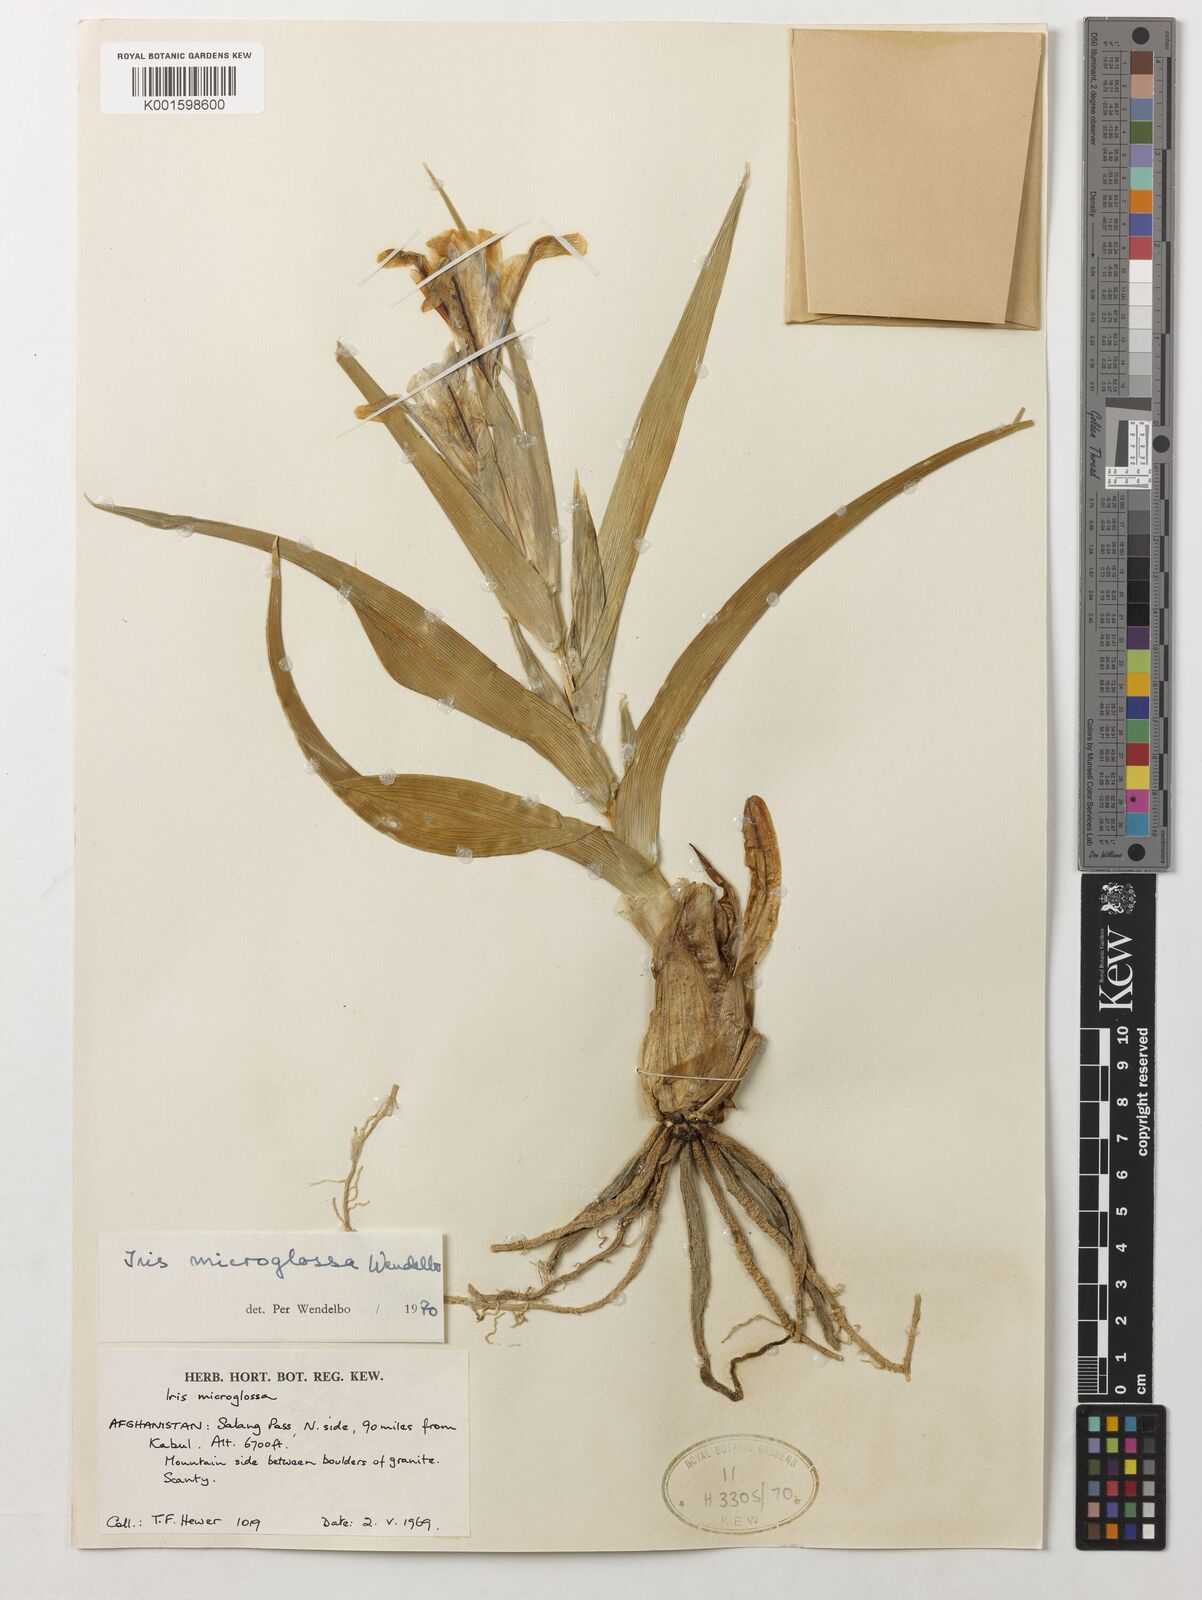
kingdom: Plantae
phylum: Tracheophyta
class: Liliopsida
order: Asparagales
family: Iridaceae
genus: Iris
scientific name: Iris microglossa
